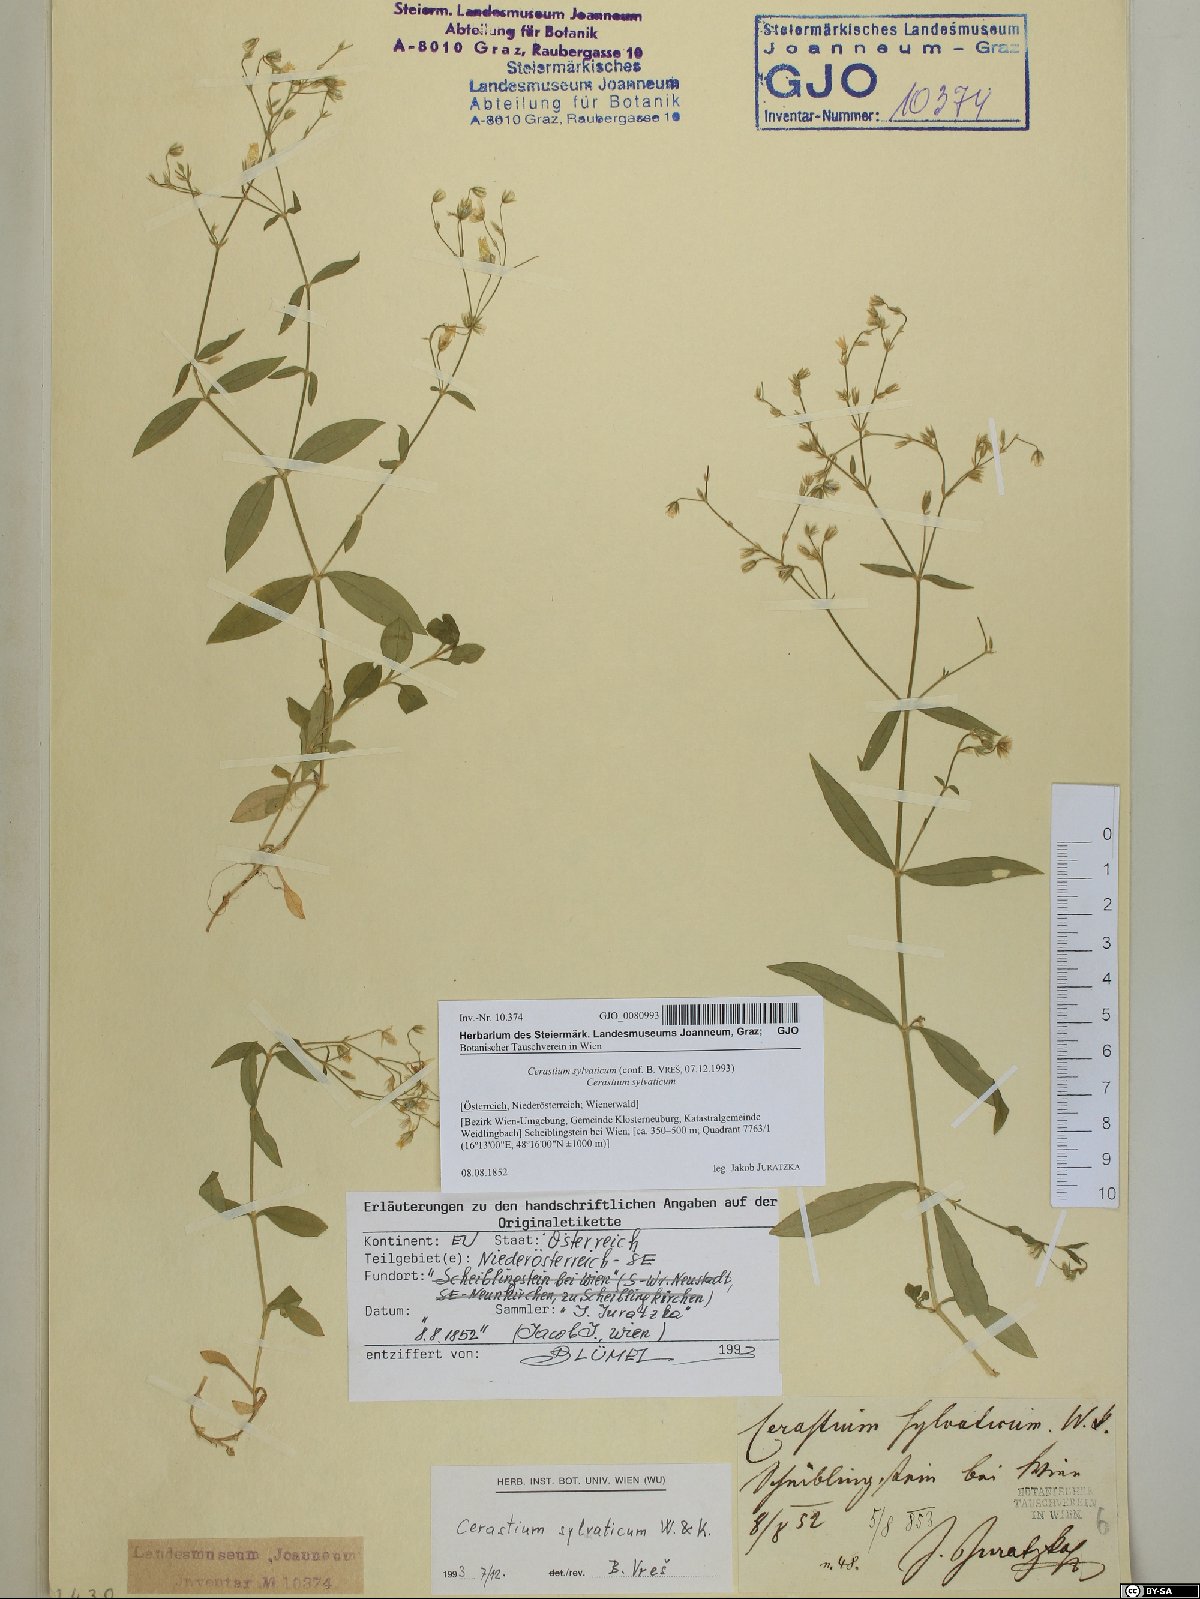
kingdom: Plantae
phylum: Tracheophyta
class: Magnoliopsida
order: Caryophyllales
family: Caryophyllaceae
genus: Cerastium
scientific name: Cerastium sylvaticum
